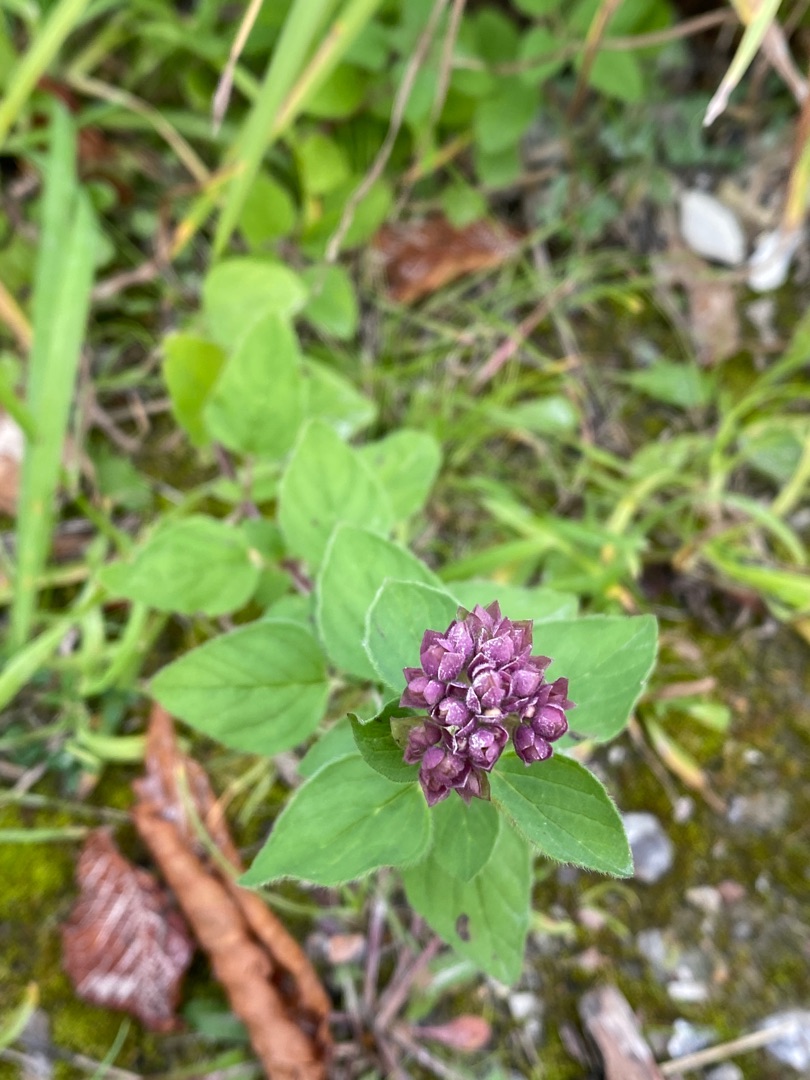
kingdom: Plantae
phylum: Tracheophyta
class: Magnoliopsida
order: Lamiales
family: Lamiaceae
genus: Origanum
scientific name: Origanum vulgare
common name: Merian
